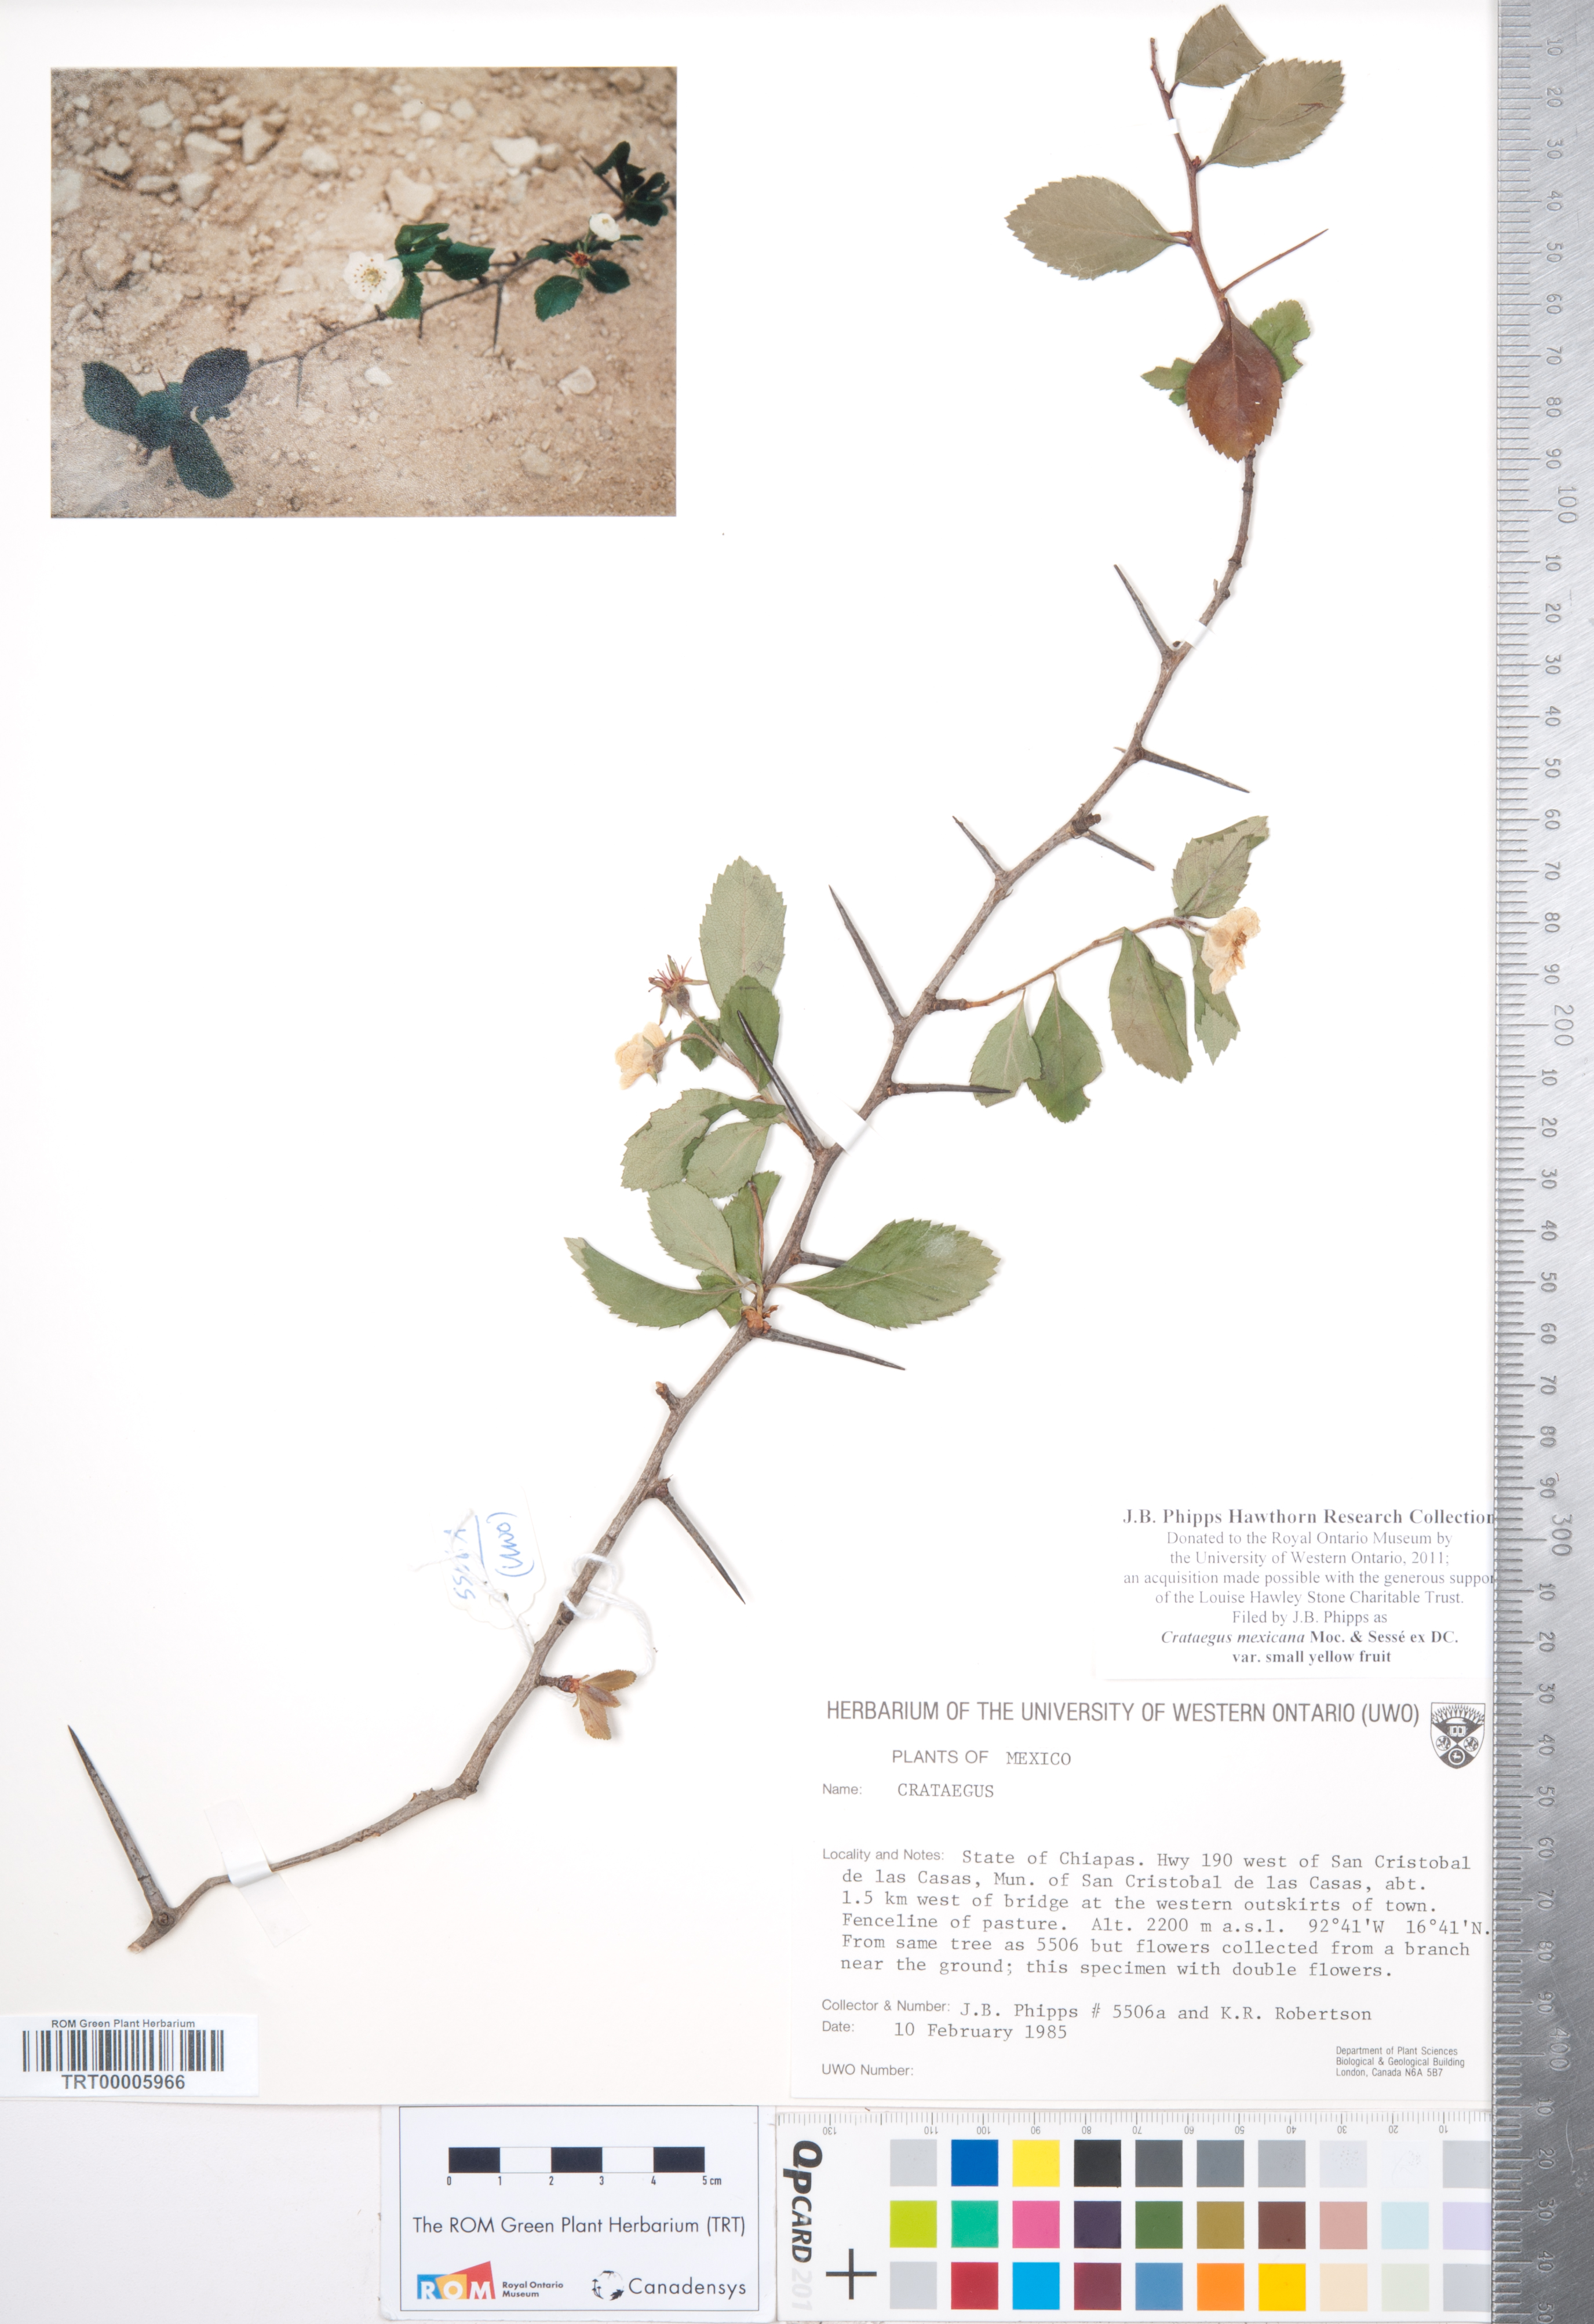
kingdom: Plantae
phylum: Tracheophyta
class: Magnoliopsida
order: Rosales
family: Rosaceae
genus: Crataegus
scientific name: Crataegus mexicana
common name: Mexican hawthorn
